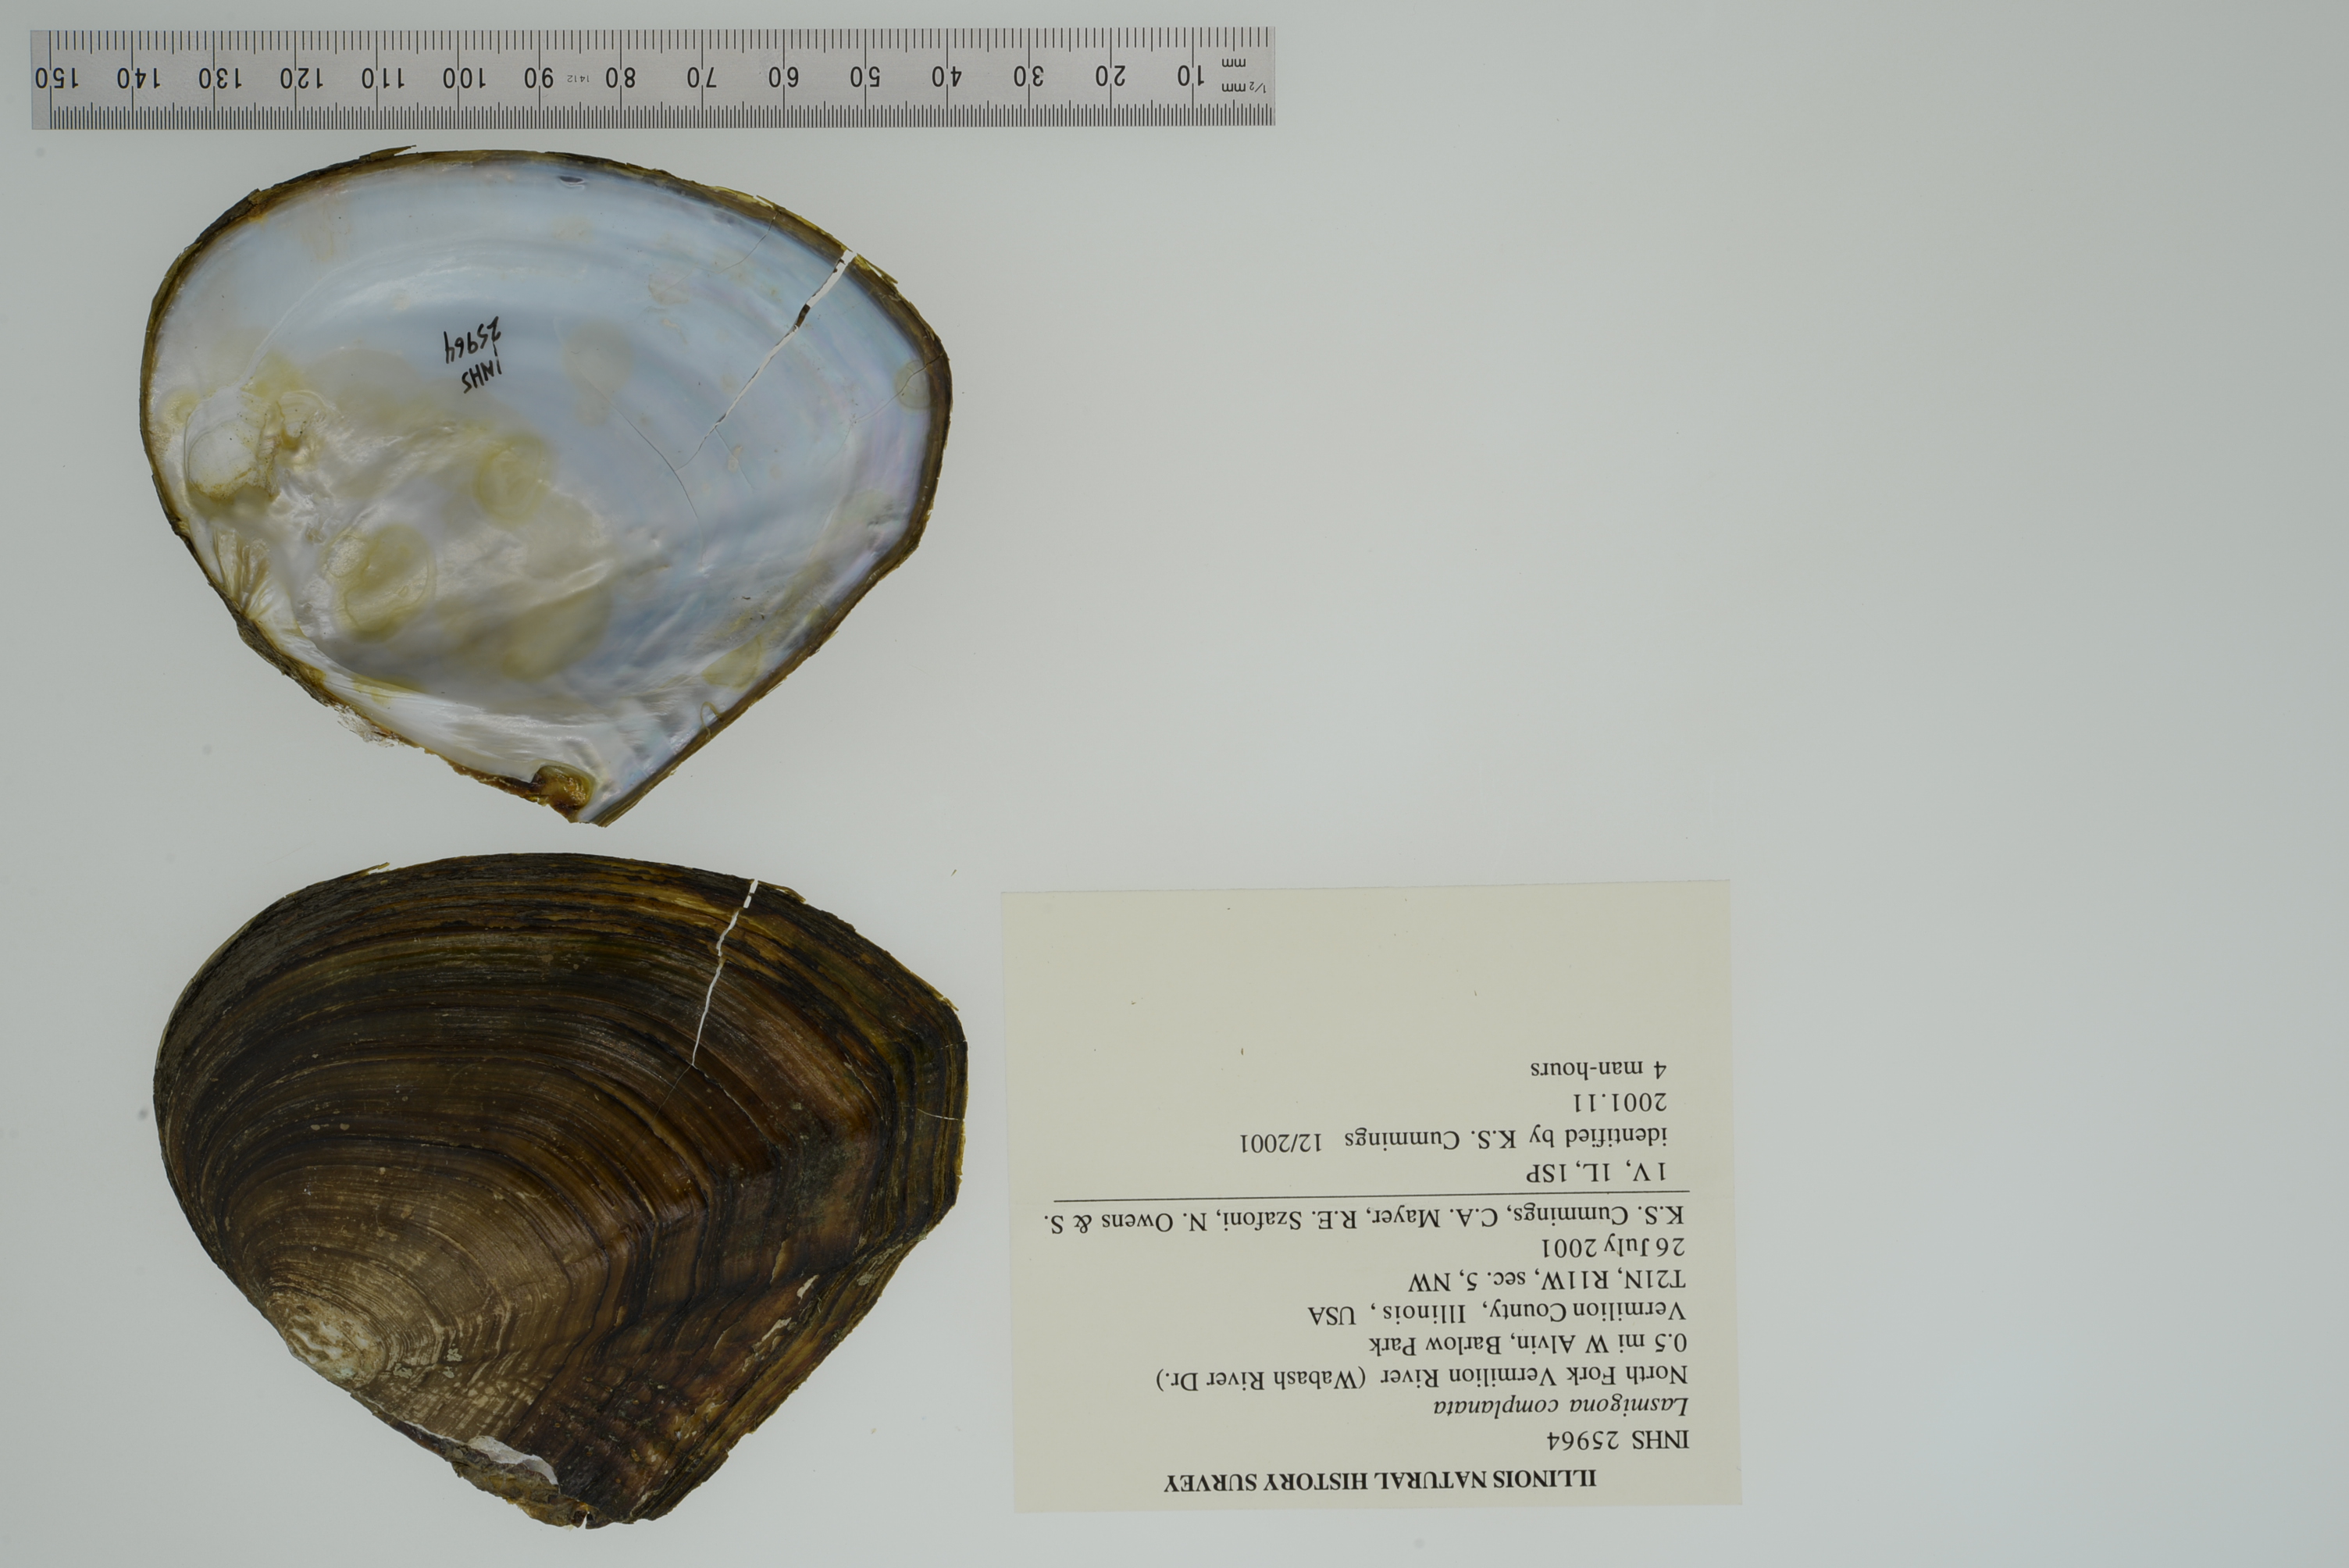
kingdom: Animalia
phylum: Mollusca
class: Bivalvia
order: Unionida
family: Unionidae
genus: Lasmigona
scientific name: Lasmigona complanata
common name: White heelsplitter
